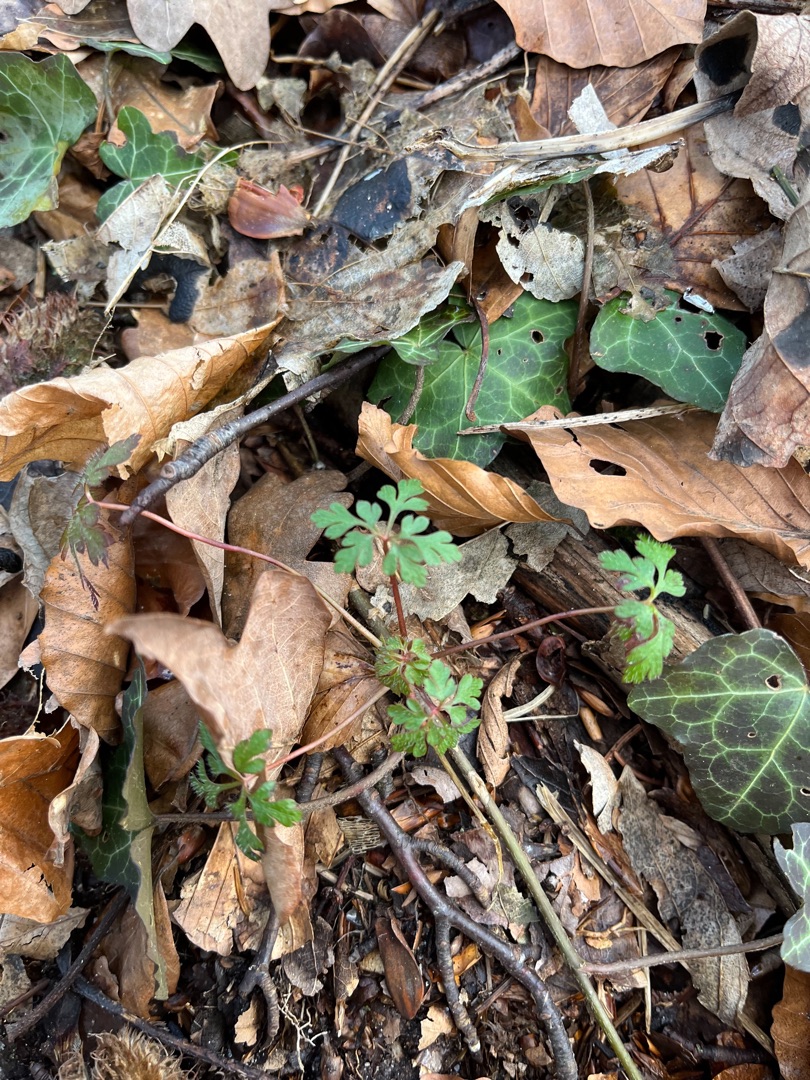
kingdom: Plantae
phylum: Tracheophyta
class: Magnoliopsida
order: Geraniales
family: Geraniaceae
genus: Geranium
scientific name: Geranium robertianum
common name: Stinkende storkenæb
